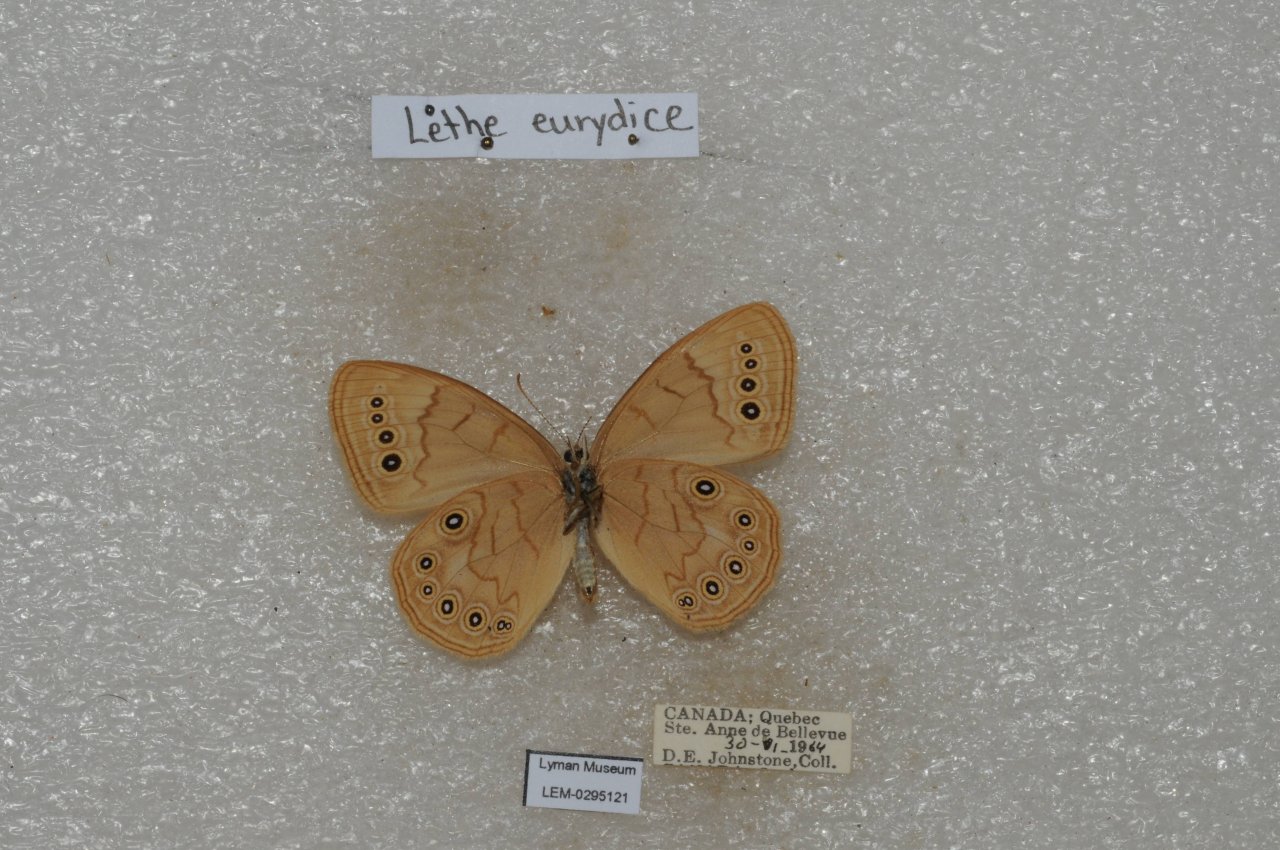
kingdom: Animalia
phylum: Arthropoda
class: Insecta
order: Lepidoptera
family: Nymphalidae
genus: Lethe
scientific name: Lethe eurydice
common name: Eyed Brown
